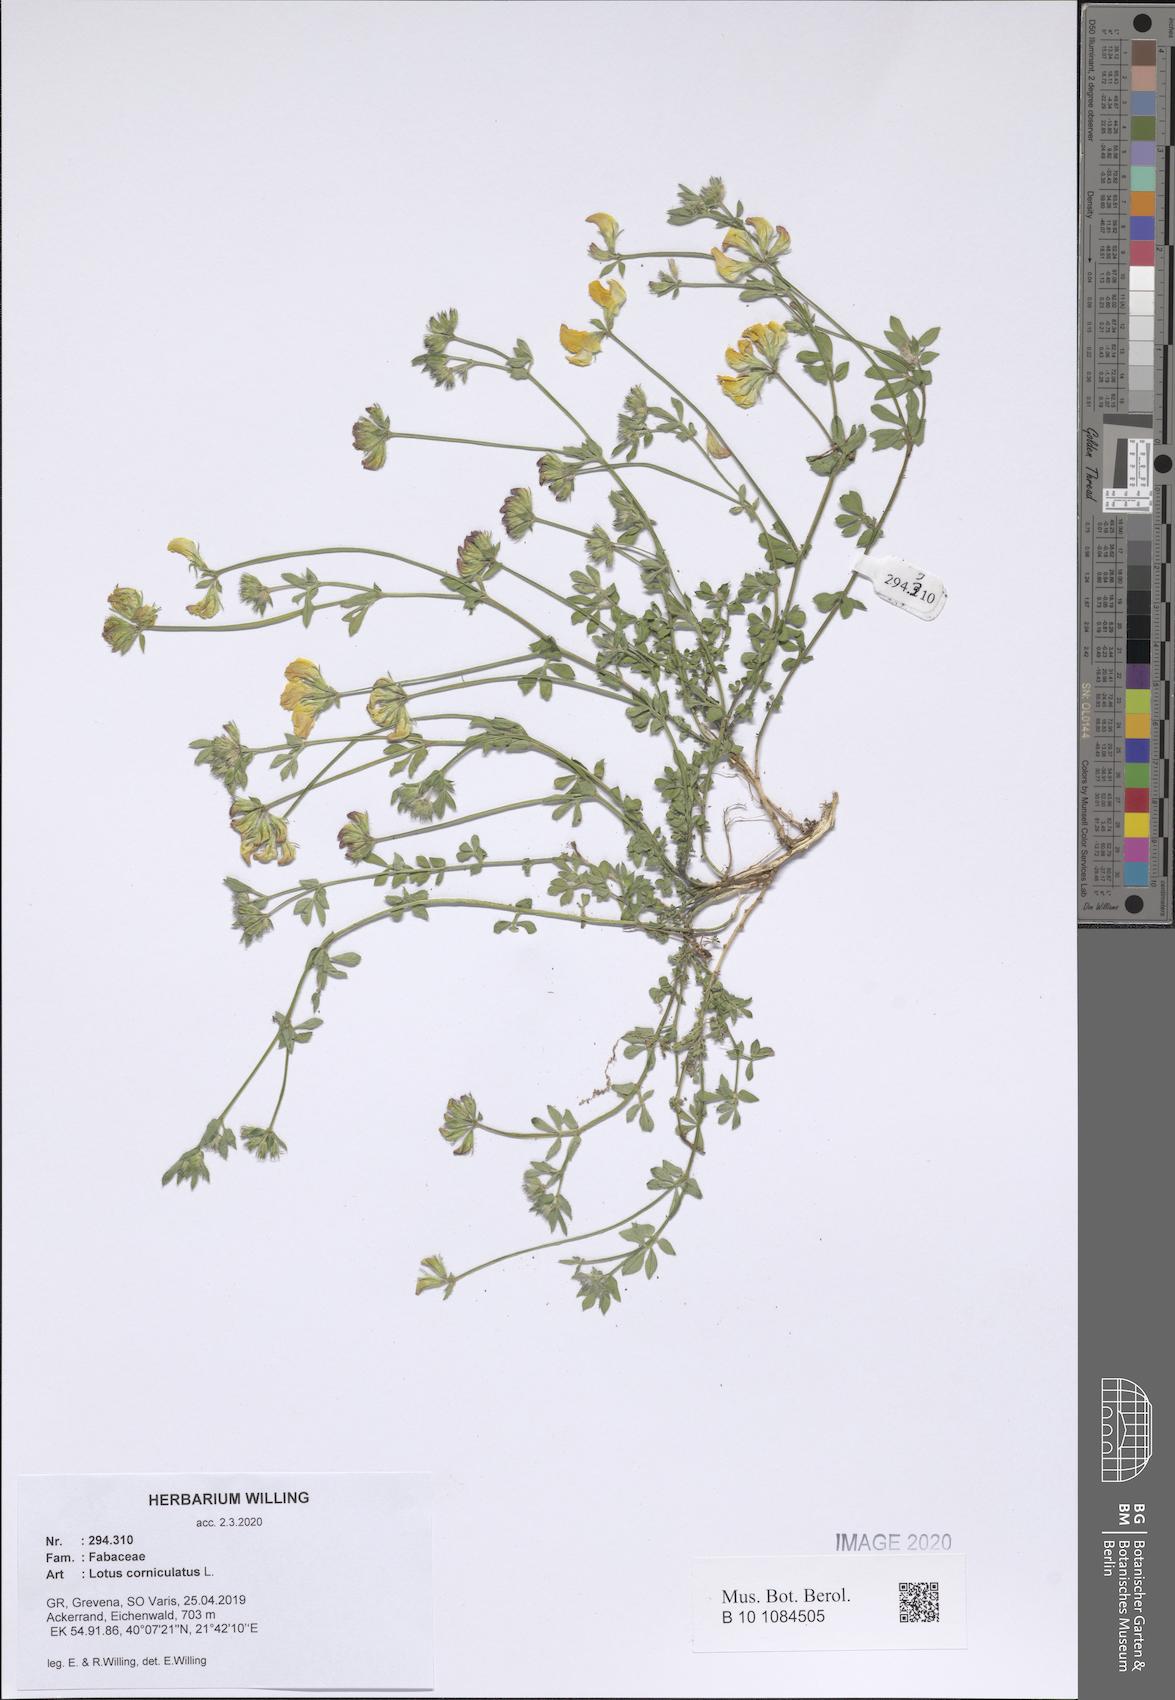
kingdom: Plantae
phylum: Tracheophyta
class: Magnoliopsida
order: Fabales
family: Fabaceae
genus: Lotus
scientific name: Lotus corniculatus
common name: Common bird's-foot-trefoil
